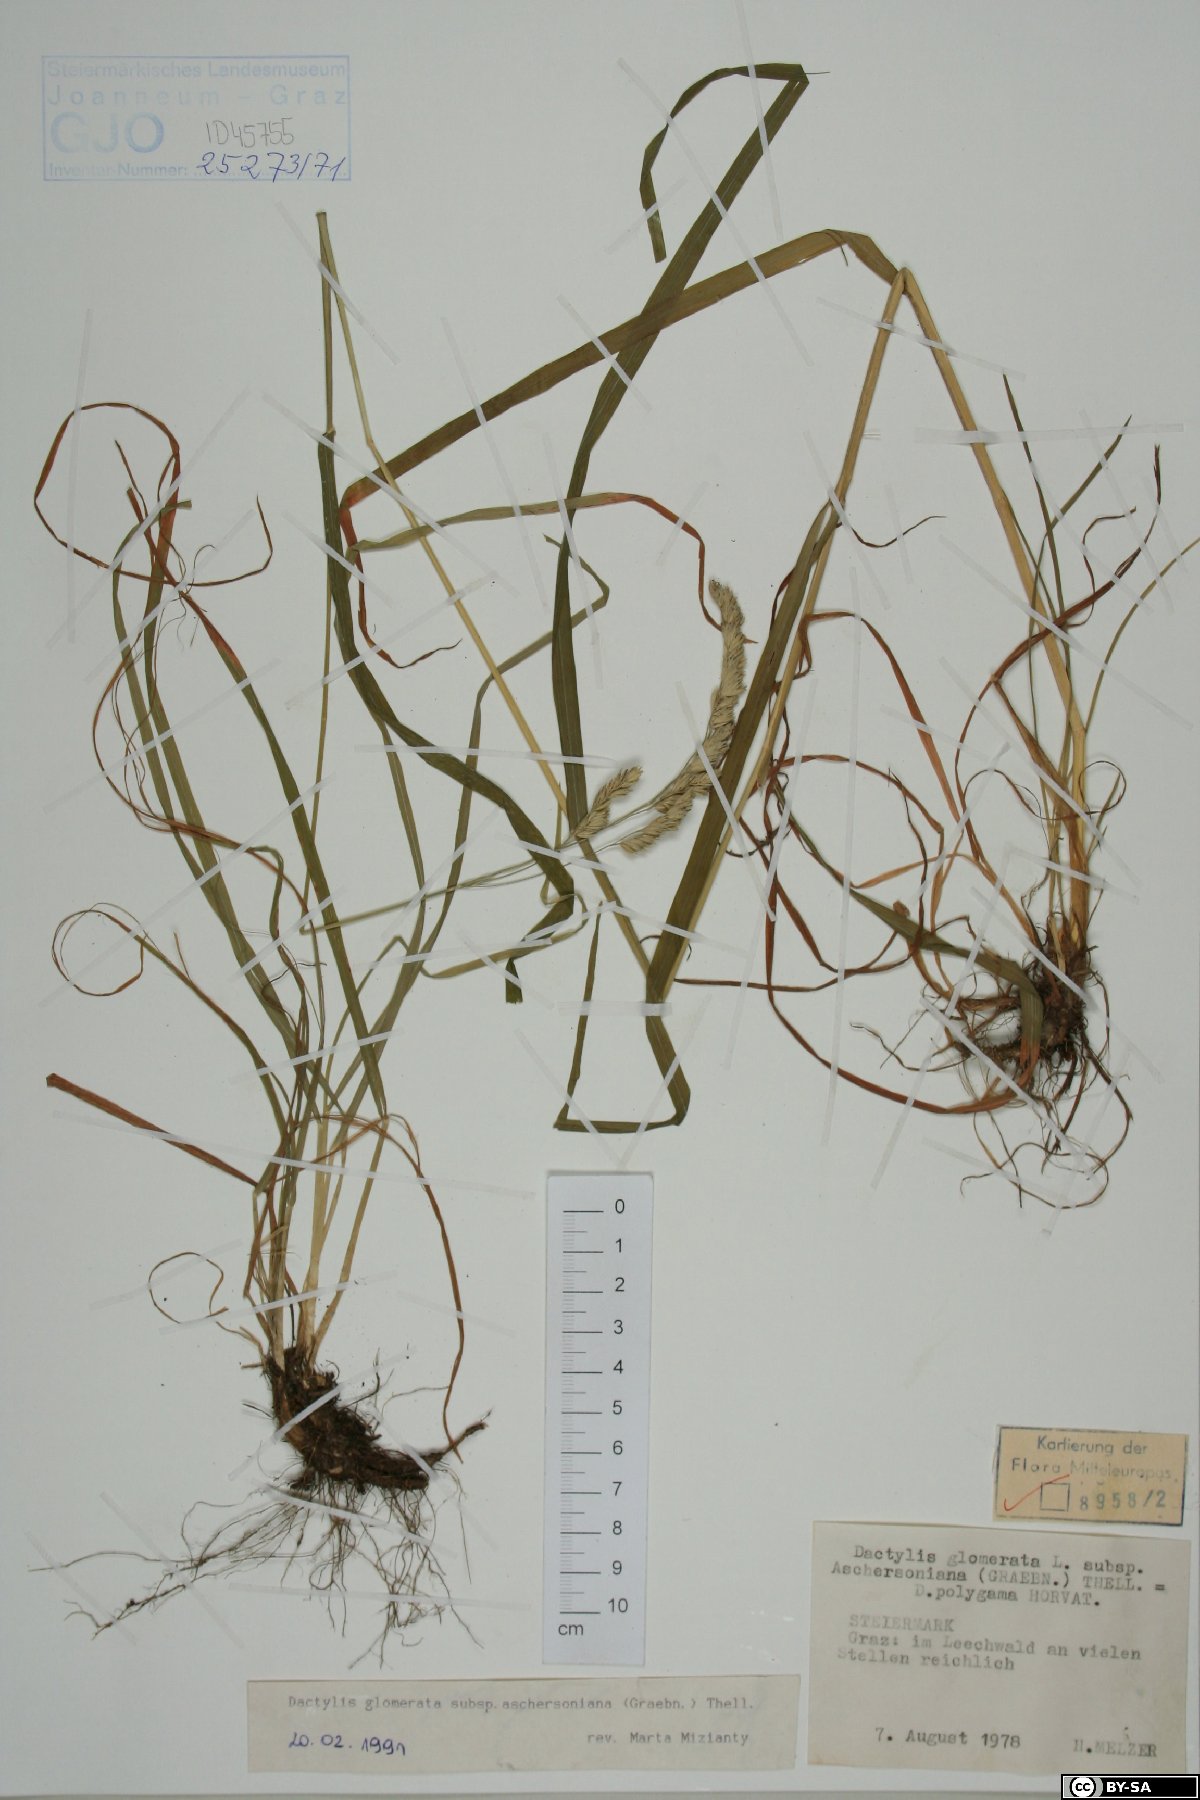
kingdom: Plantae
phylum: Tracheophyta
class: Liliopsida
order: Poales
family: Poaceae
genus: Dactylis
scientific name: Dactylis glomerata
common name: Orchardgrass
